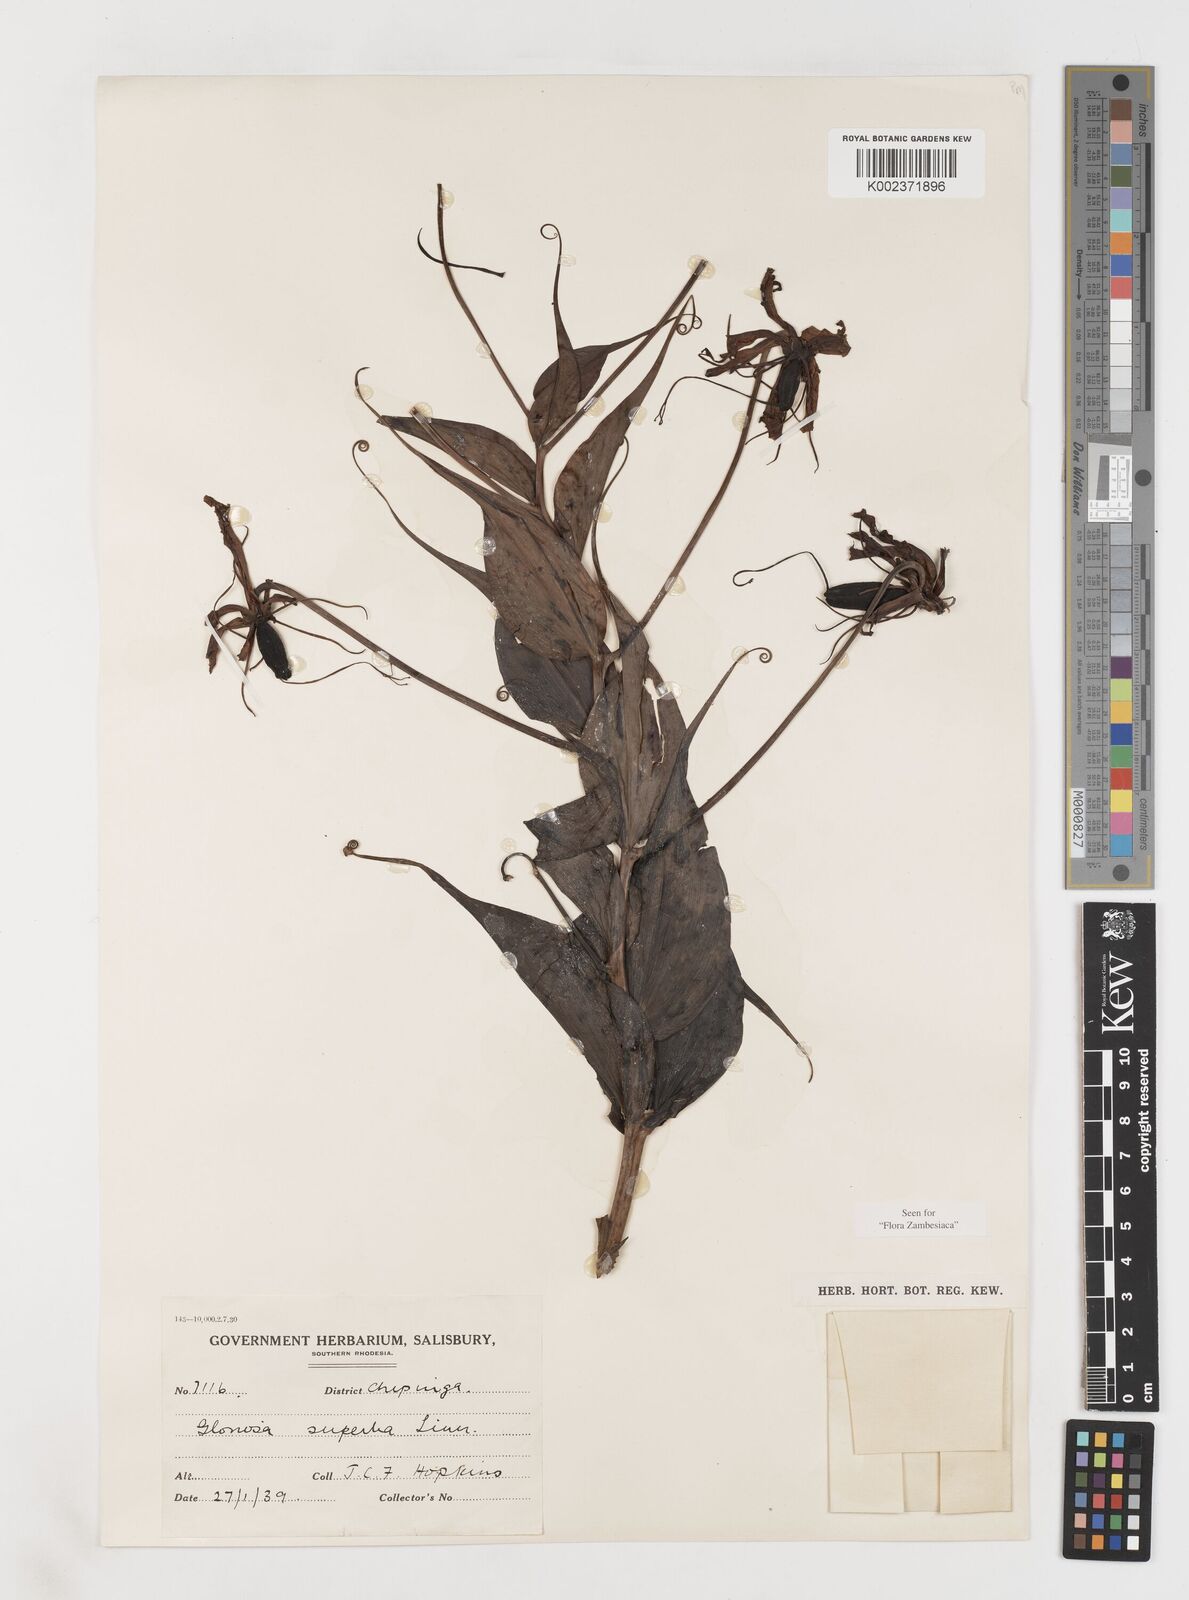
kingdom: Plantae
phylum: Tracheophyta
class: Liliopsida
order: Liliales
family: Colchicaceae
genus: Gloriosa
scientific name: Gloriosa simplex
